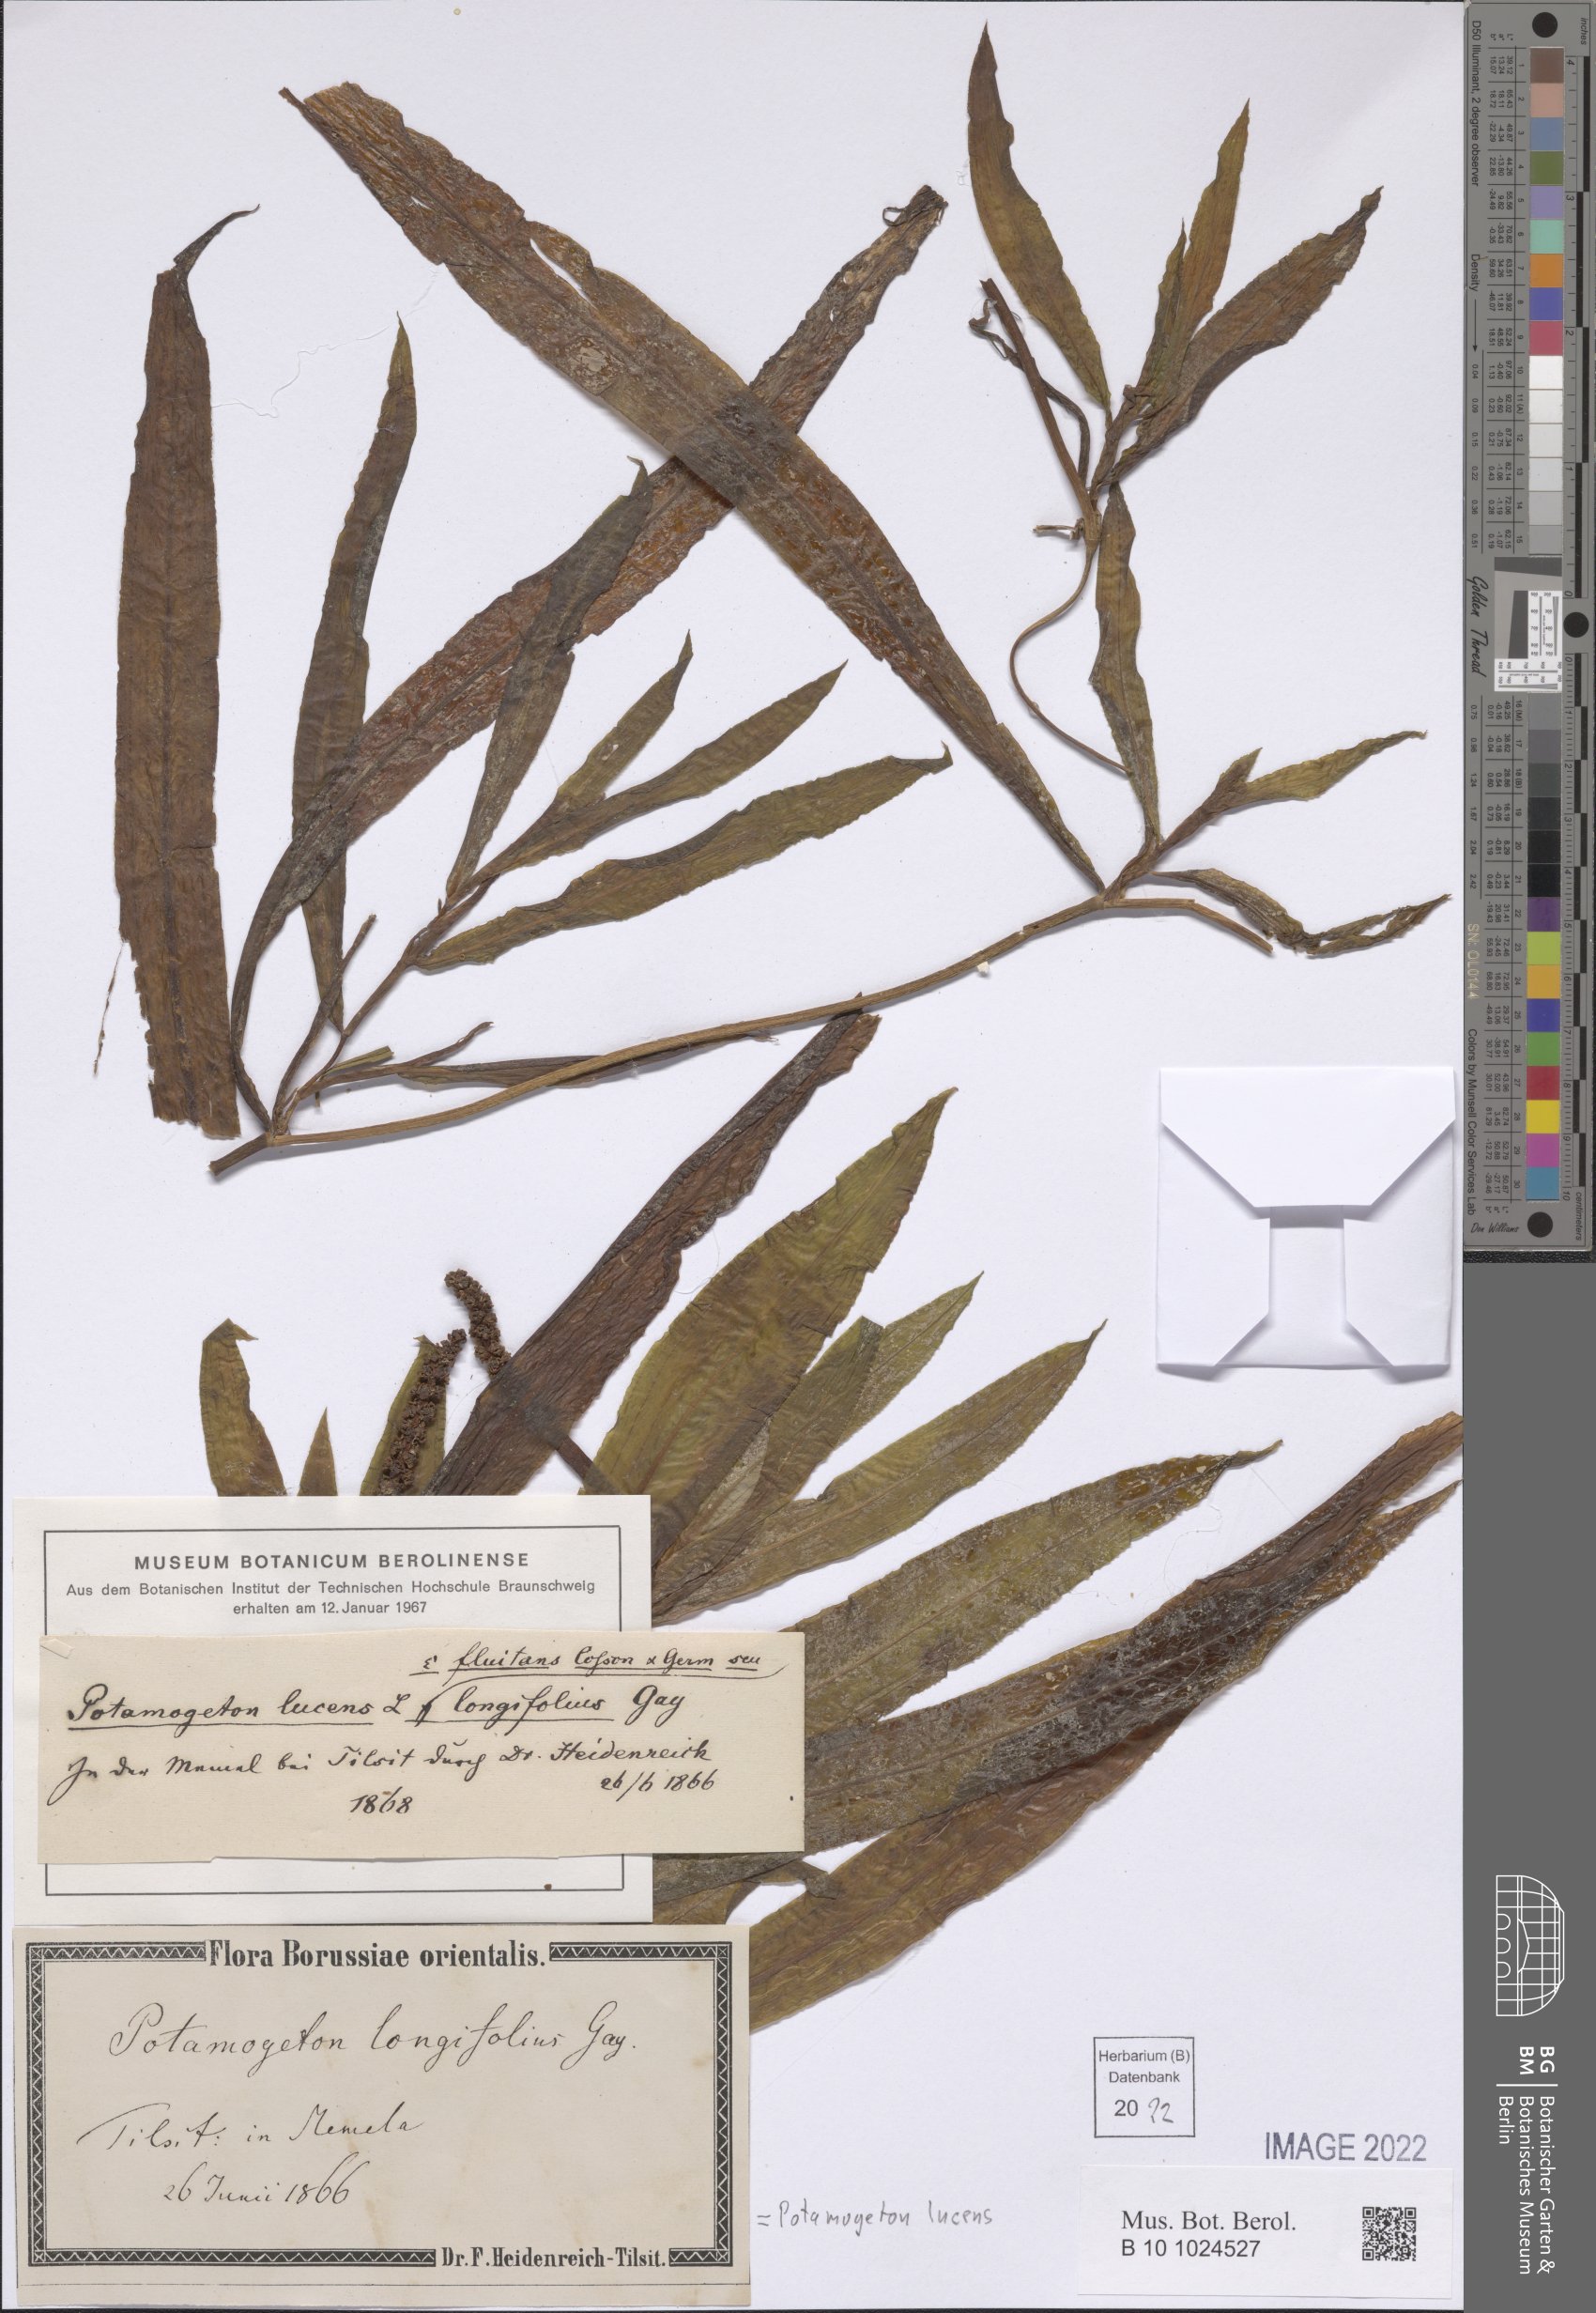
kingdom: Plantae
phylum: Tracheophyta
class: Liliopsida
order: Alismatales
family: Potamogetonaceae
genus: Potamogeton
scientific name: Potamogeton lucens
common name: Shining pondweed
